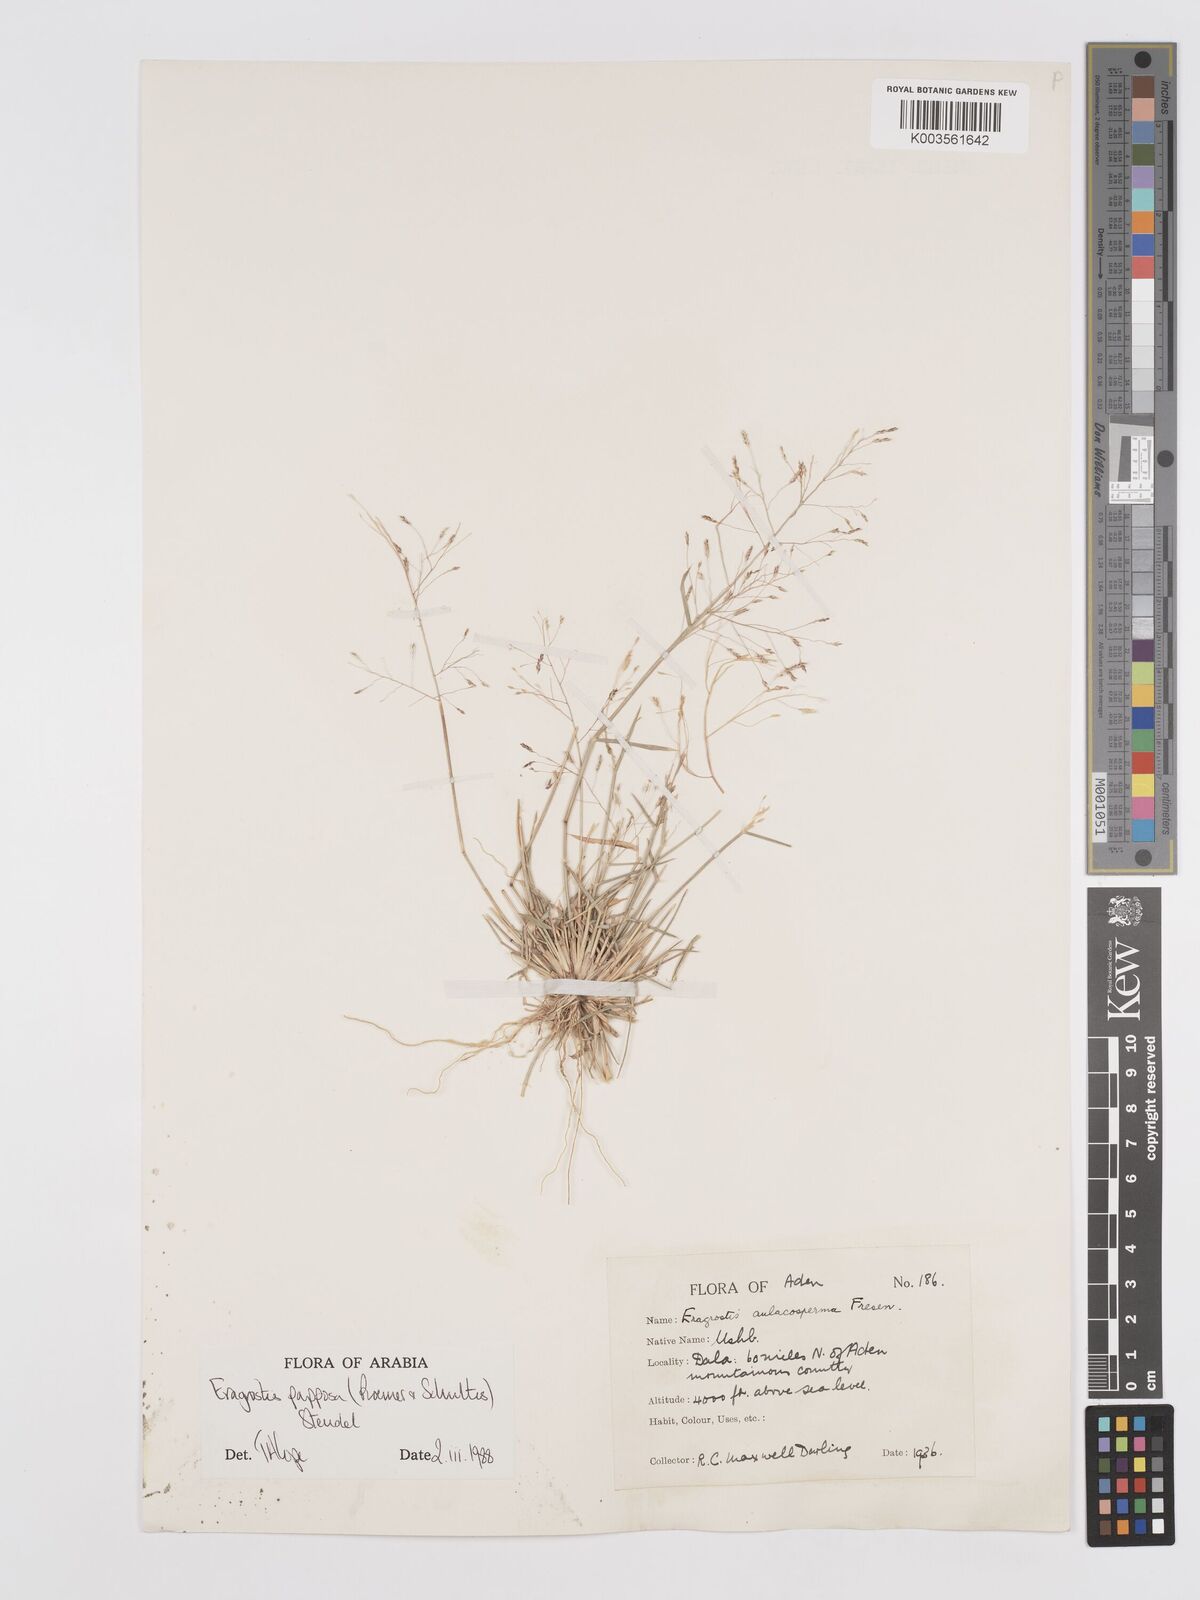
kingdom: Plantae
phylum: Tracheophyta
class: Liliopsida
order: Poales
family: Poaceae
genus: Eragrostis
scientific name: Eragrostis papposa
